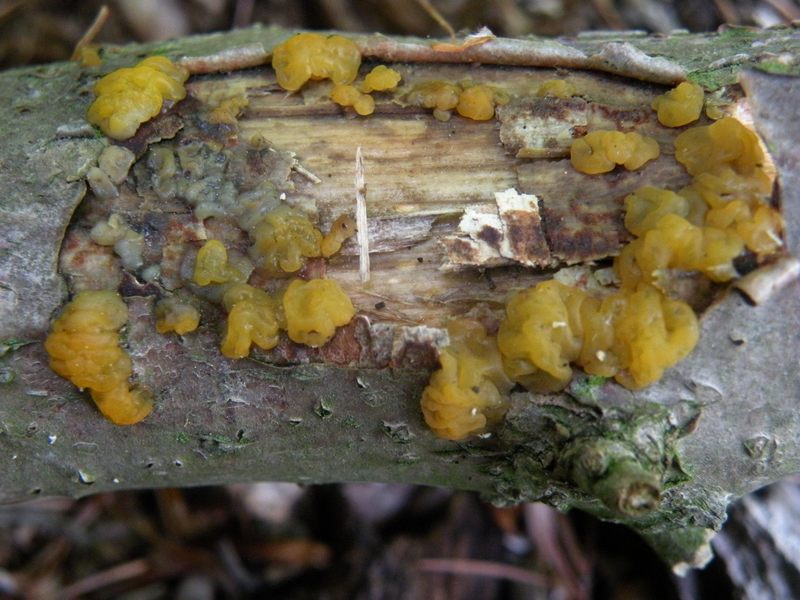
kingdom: Fungi
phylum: Basidiomycota
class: Dacrymycetes
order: Dacrymycetales
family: Dacrymycetaceae
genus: Dacrymyces
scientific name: Dacrymyces lacrymalis
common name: rynket tåresvamp
